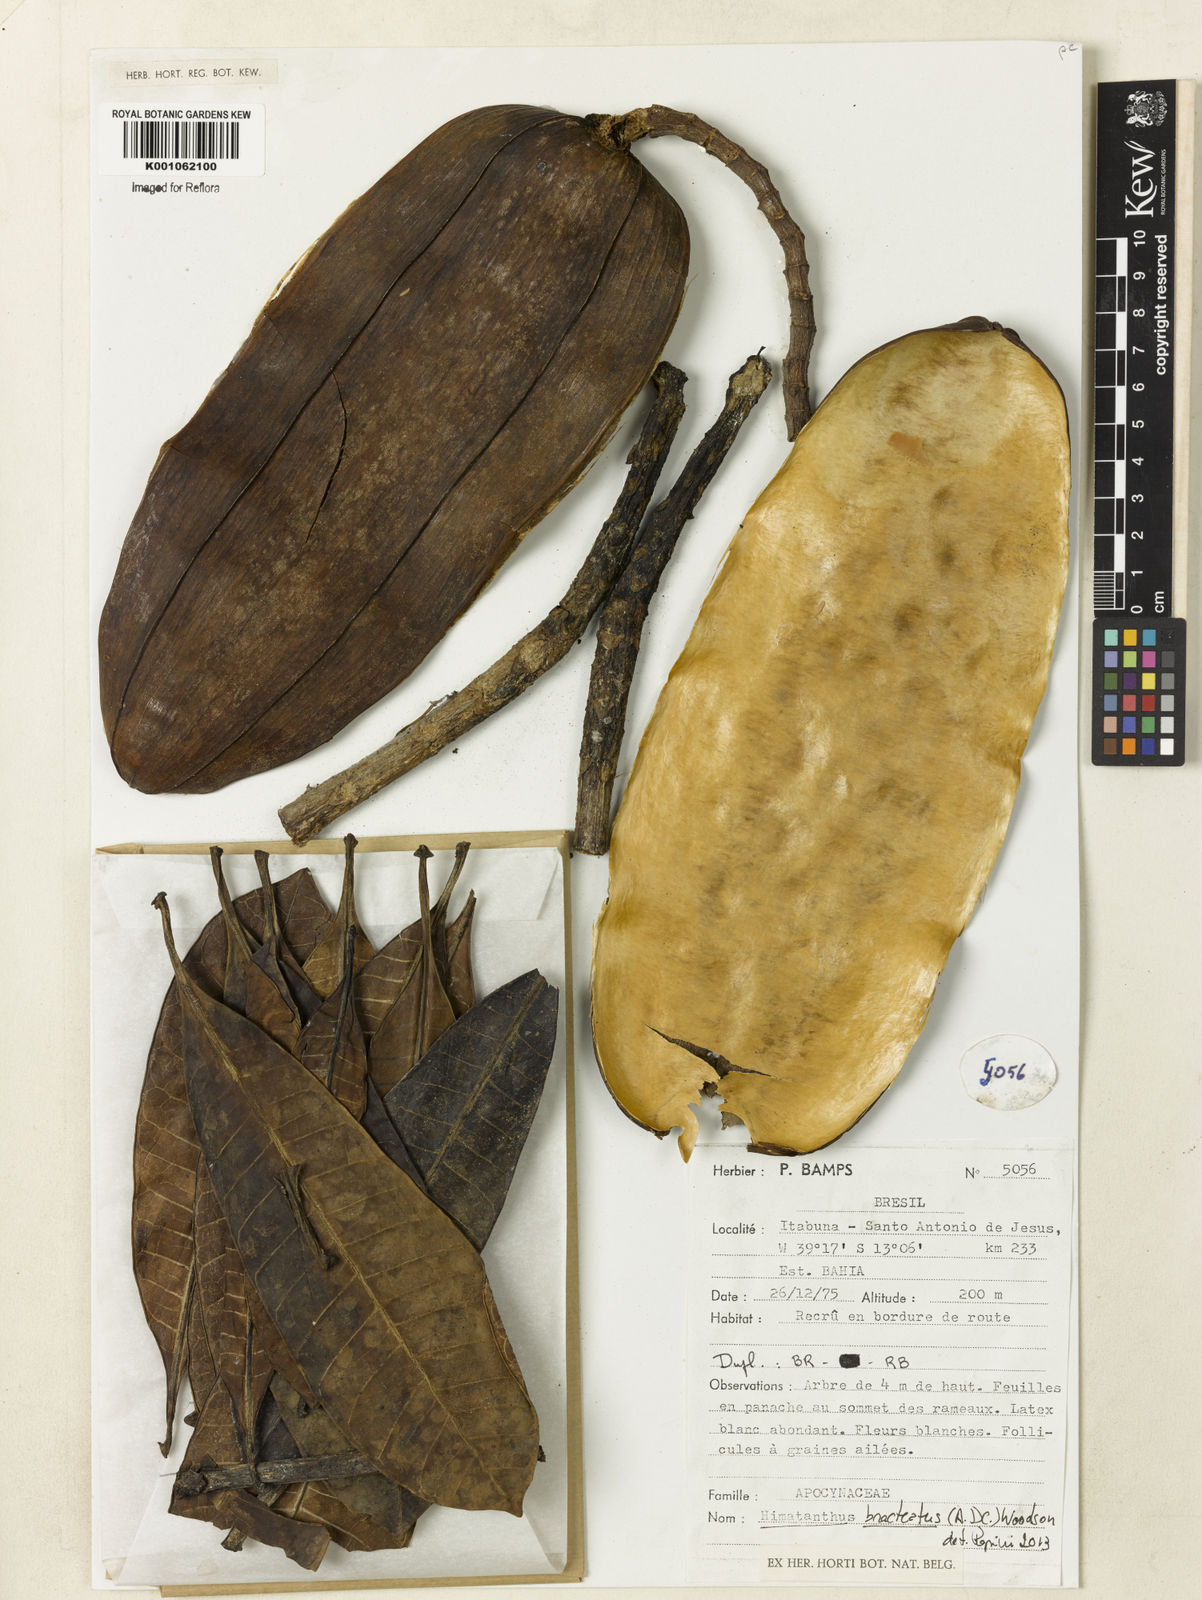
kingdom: Plantae
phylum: Tracheophyta
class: Magnoliopsida
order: Gentianales
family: Apocynaceae
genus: Himatanthus
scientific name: Himatanthus bracteatus
